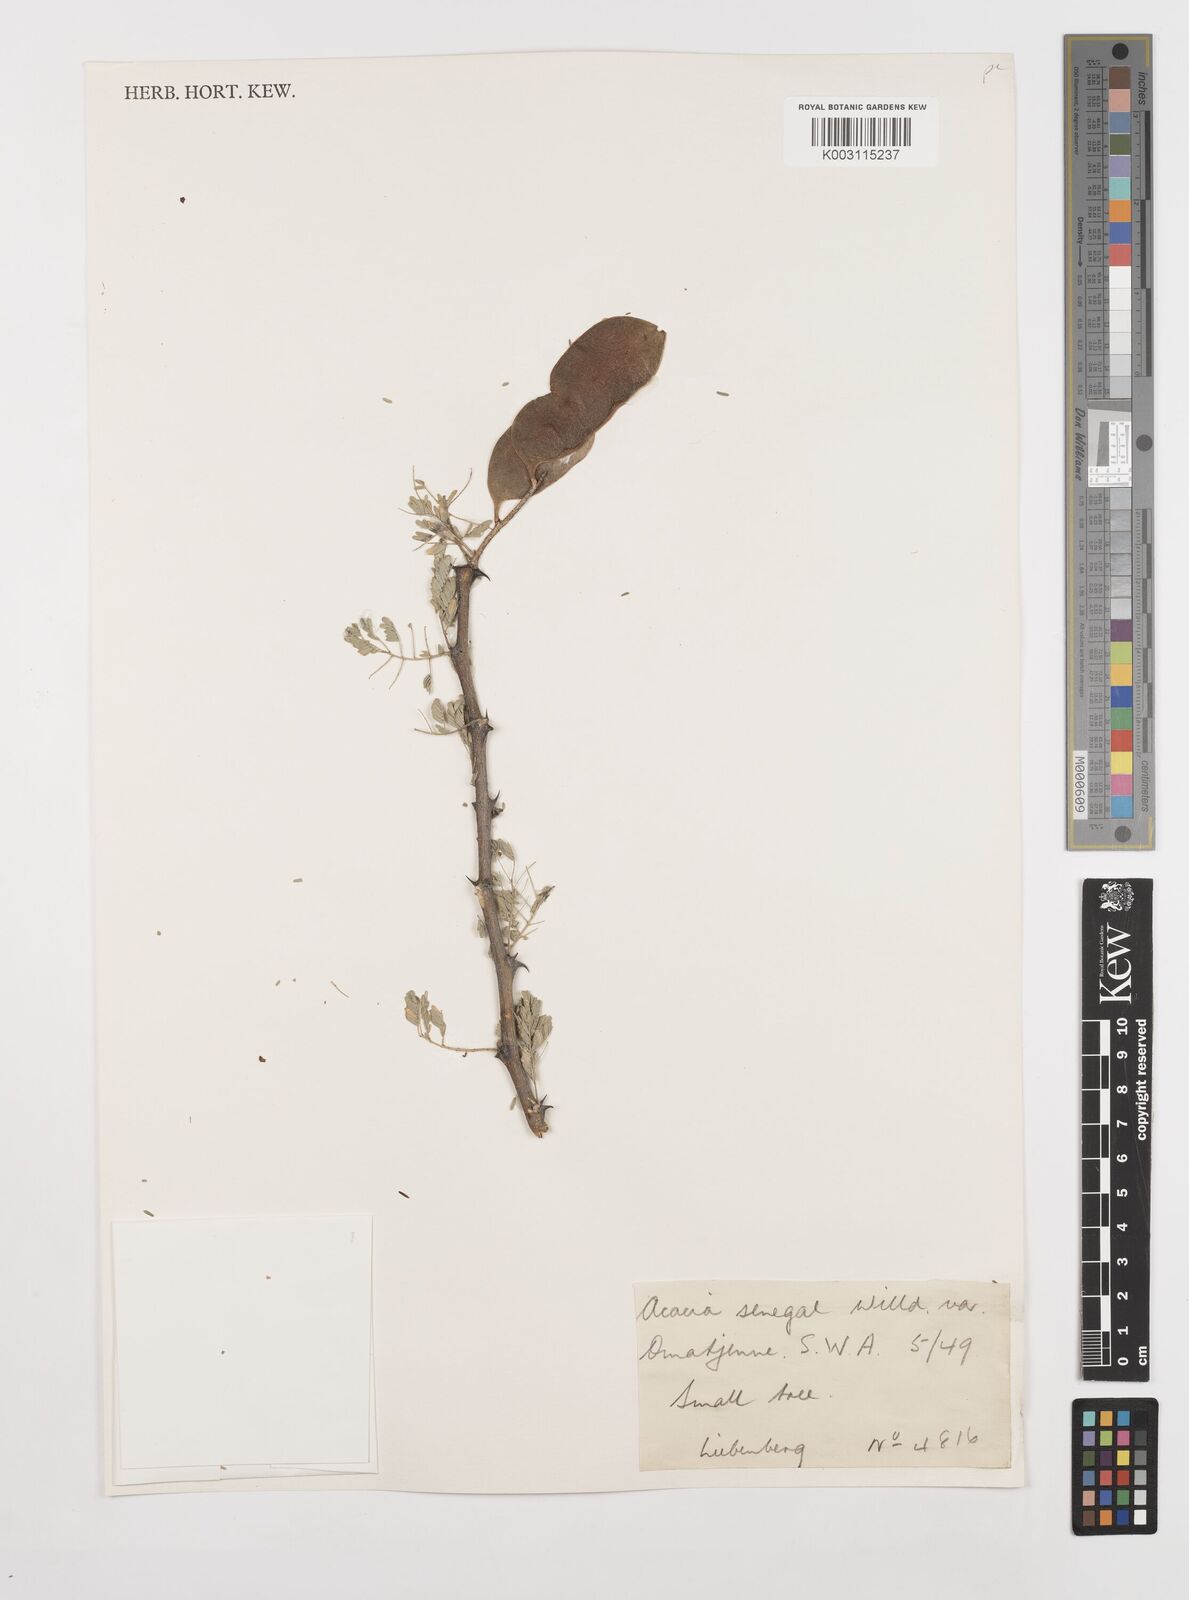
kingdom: Plantae
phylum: Tracheophyta
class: Magnoliopsida
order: Fabales
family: Fabaceae
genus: Senegalia
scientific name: Senegalia senegal
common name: Senegal-gum
